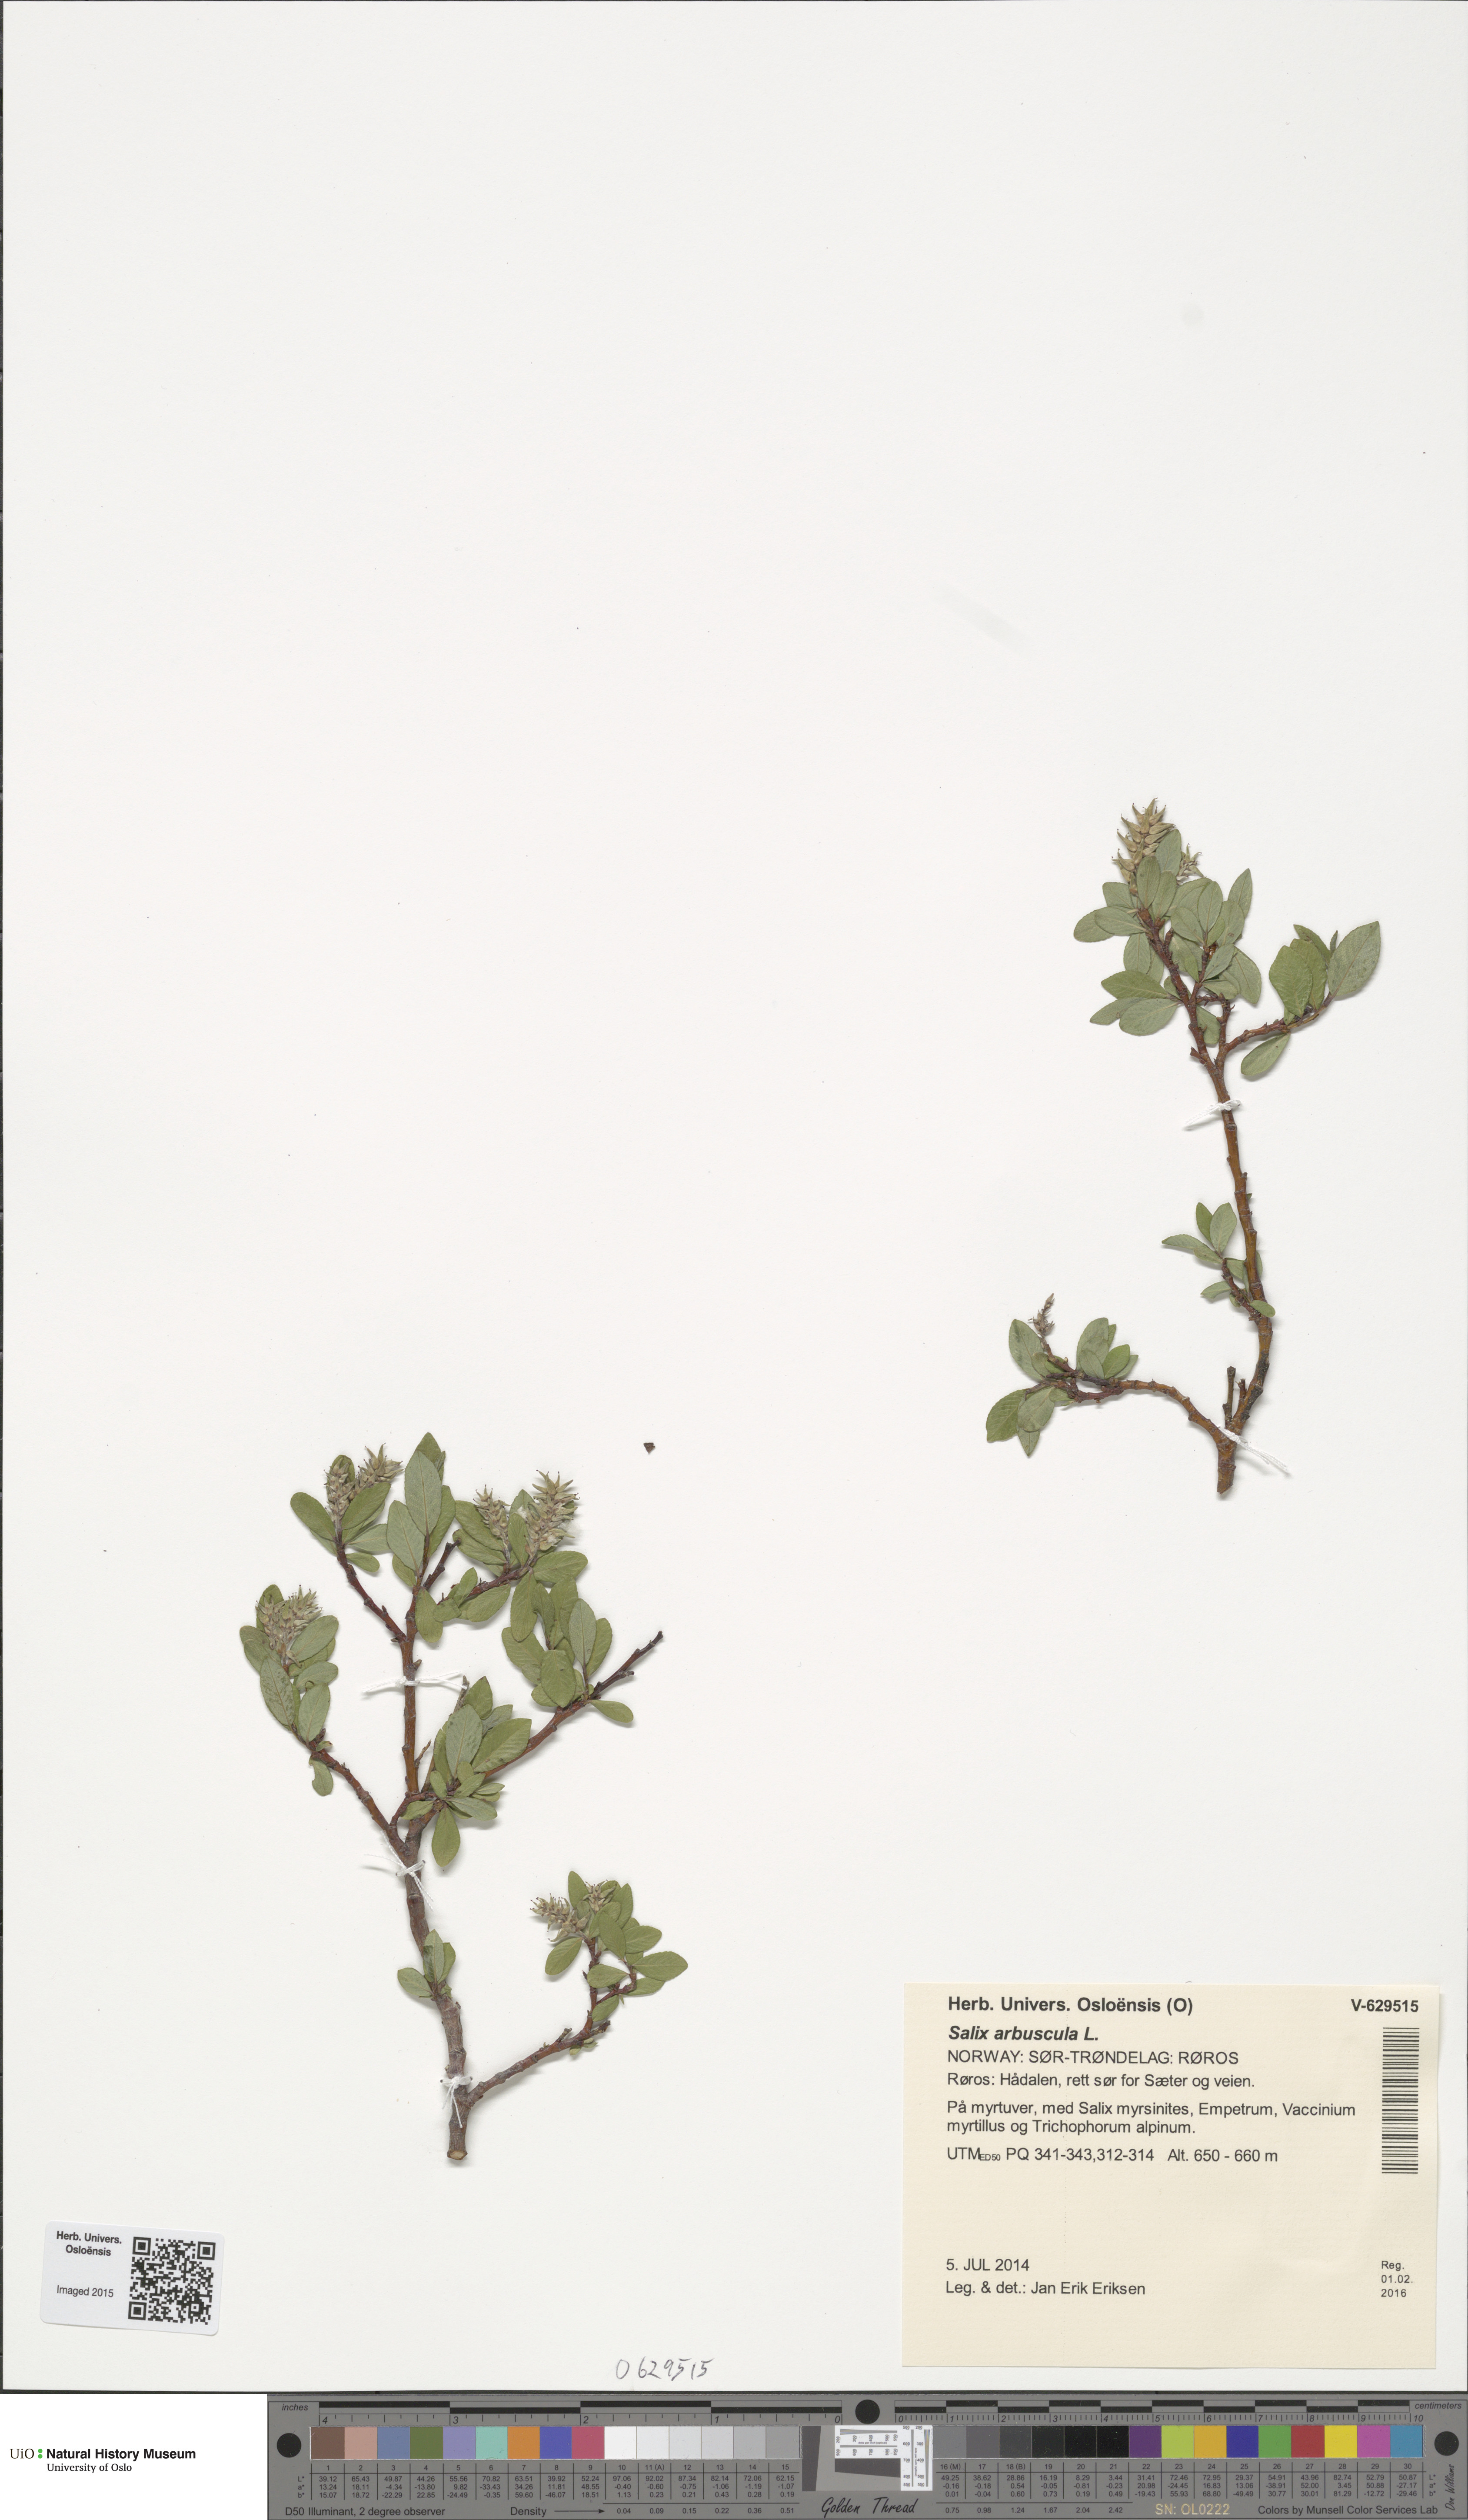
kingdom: Plantae
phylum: Tracheophyta
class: Magnoliopsida
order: Malpighiales
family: Salicaceae
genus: Salix
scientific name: Salix arbuscula
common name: Mountain willow
